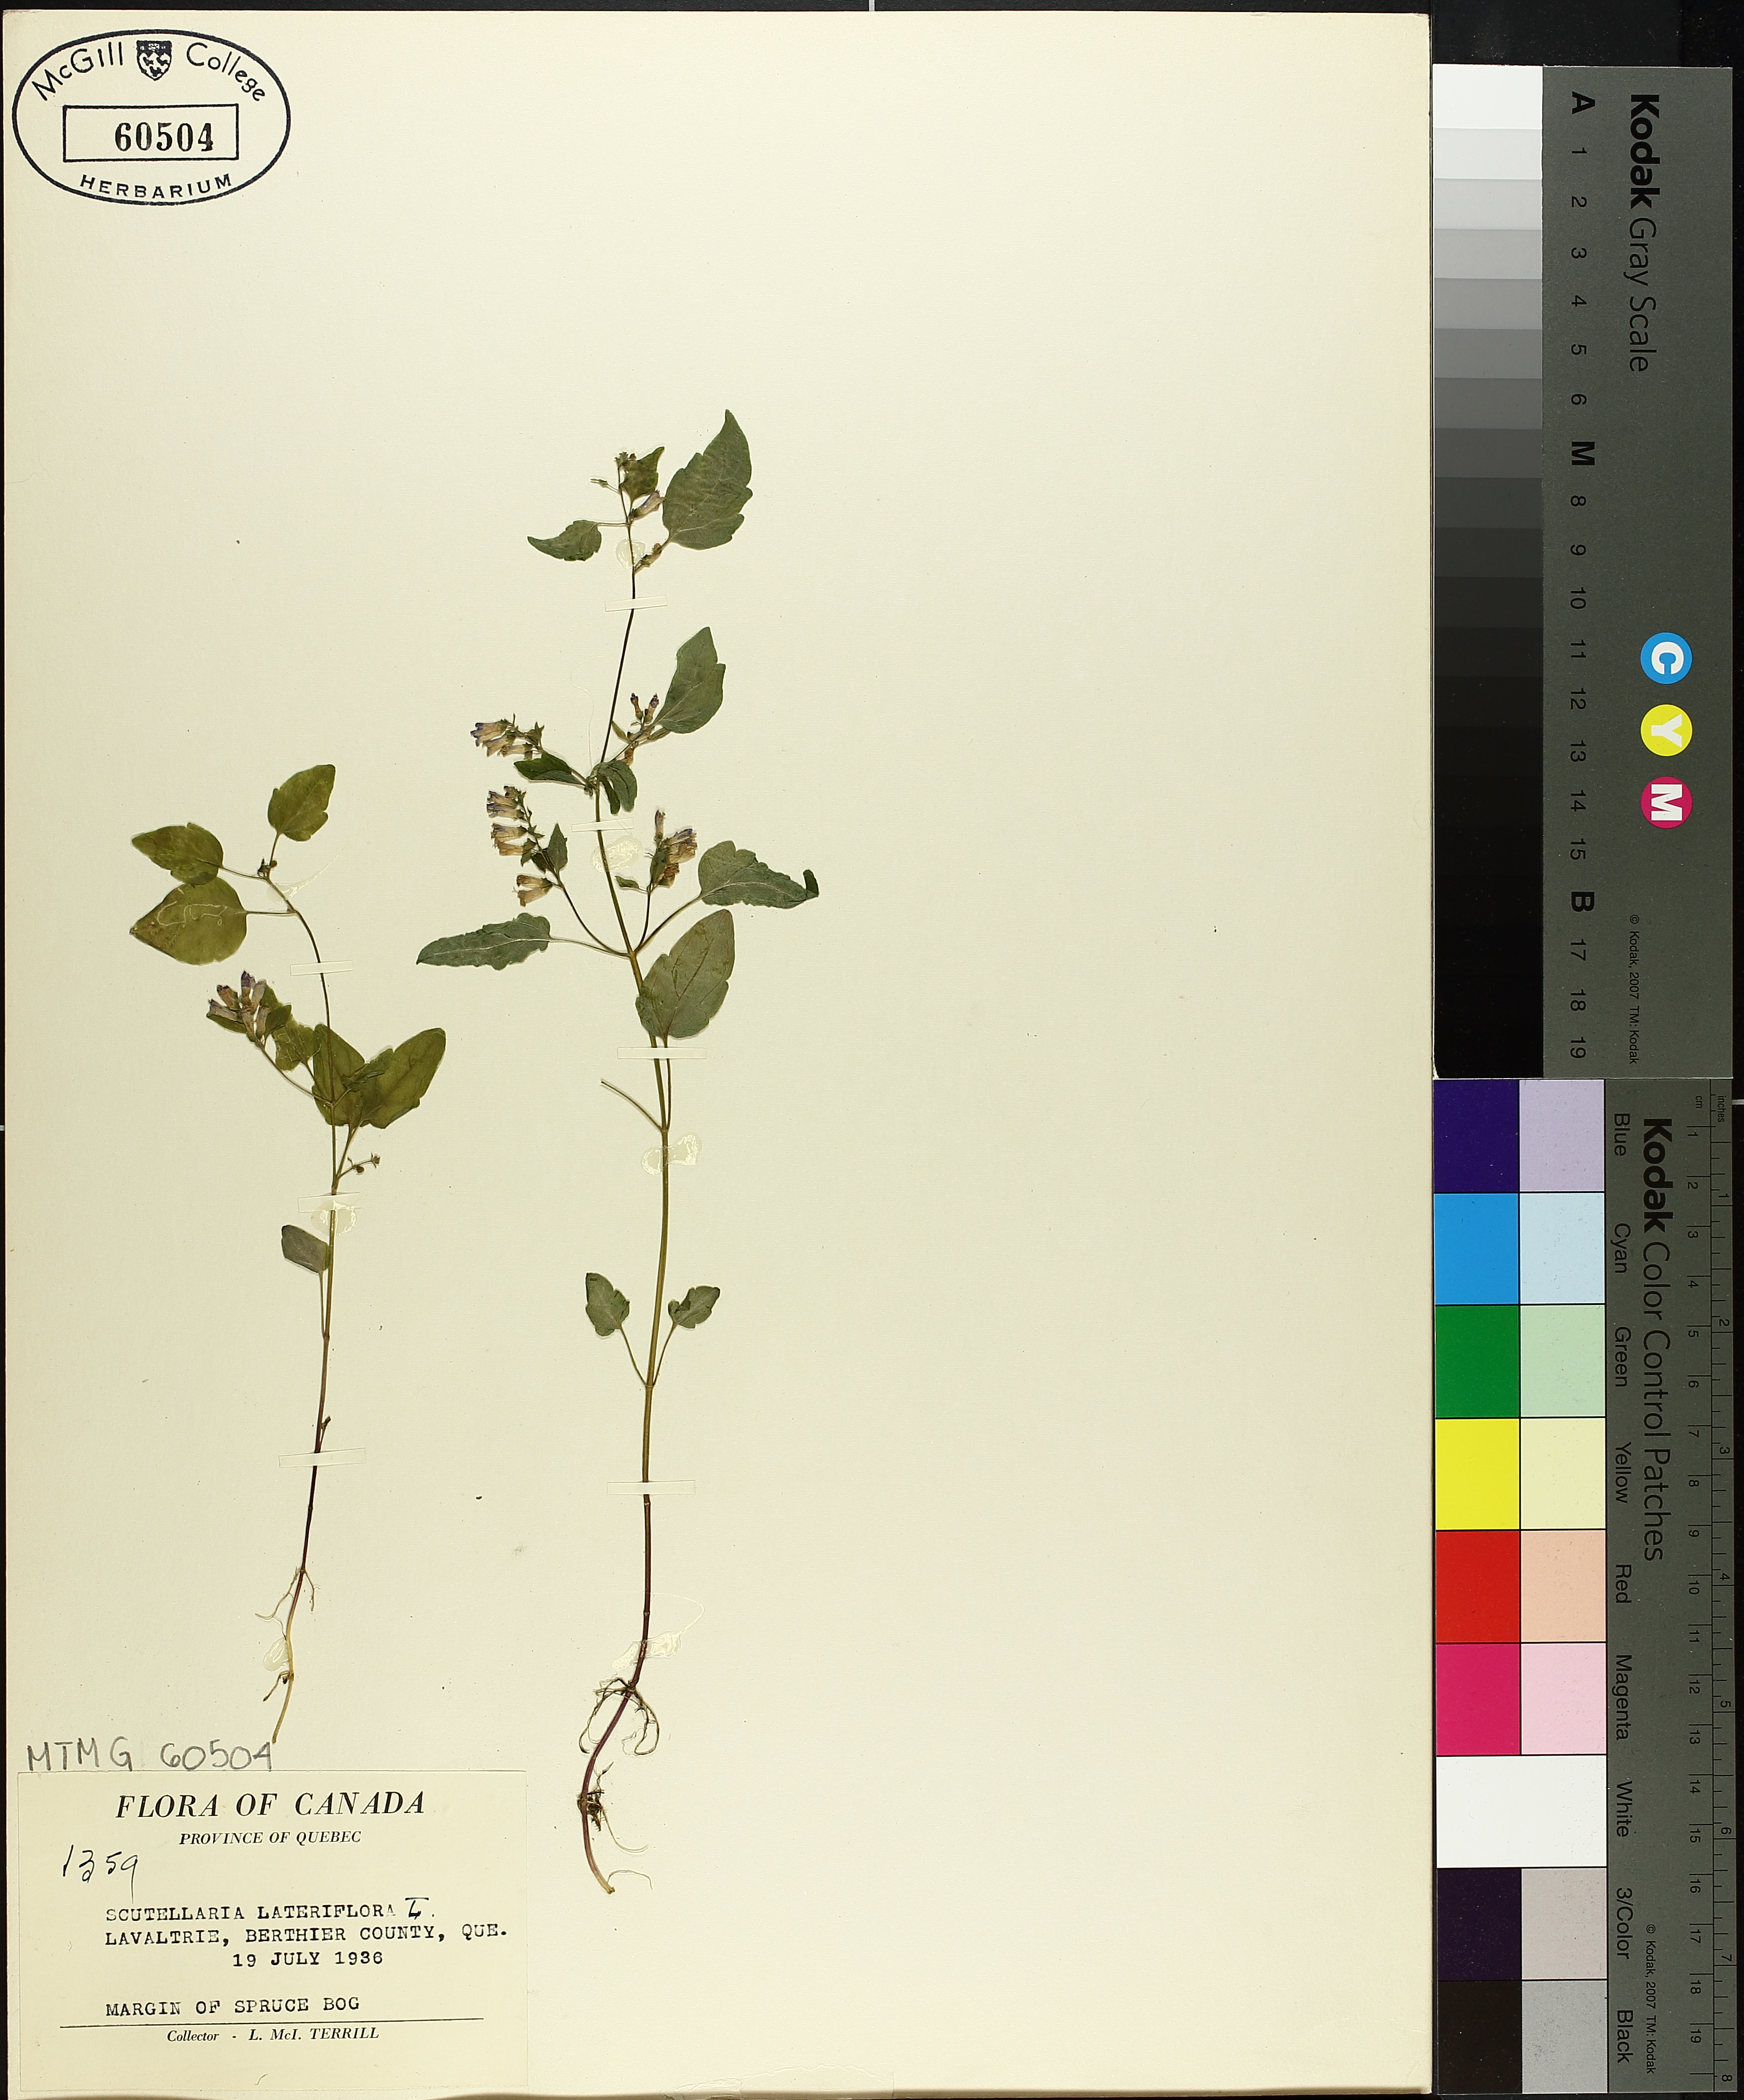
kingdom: Plantae
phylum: Tracheophyta
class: Magnoliopsida
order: Lamiales
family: Lamiaceae
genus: Scutellaria
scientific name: Scutellaria lateriflora
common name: Blue skullcap
